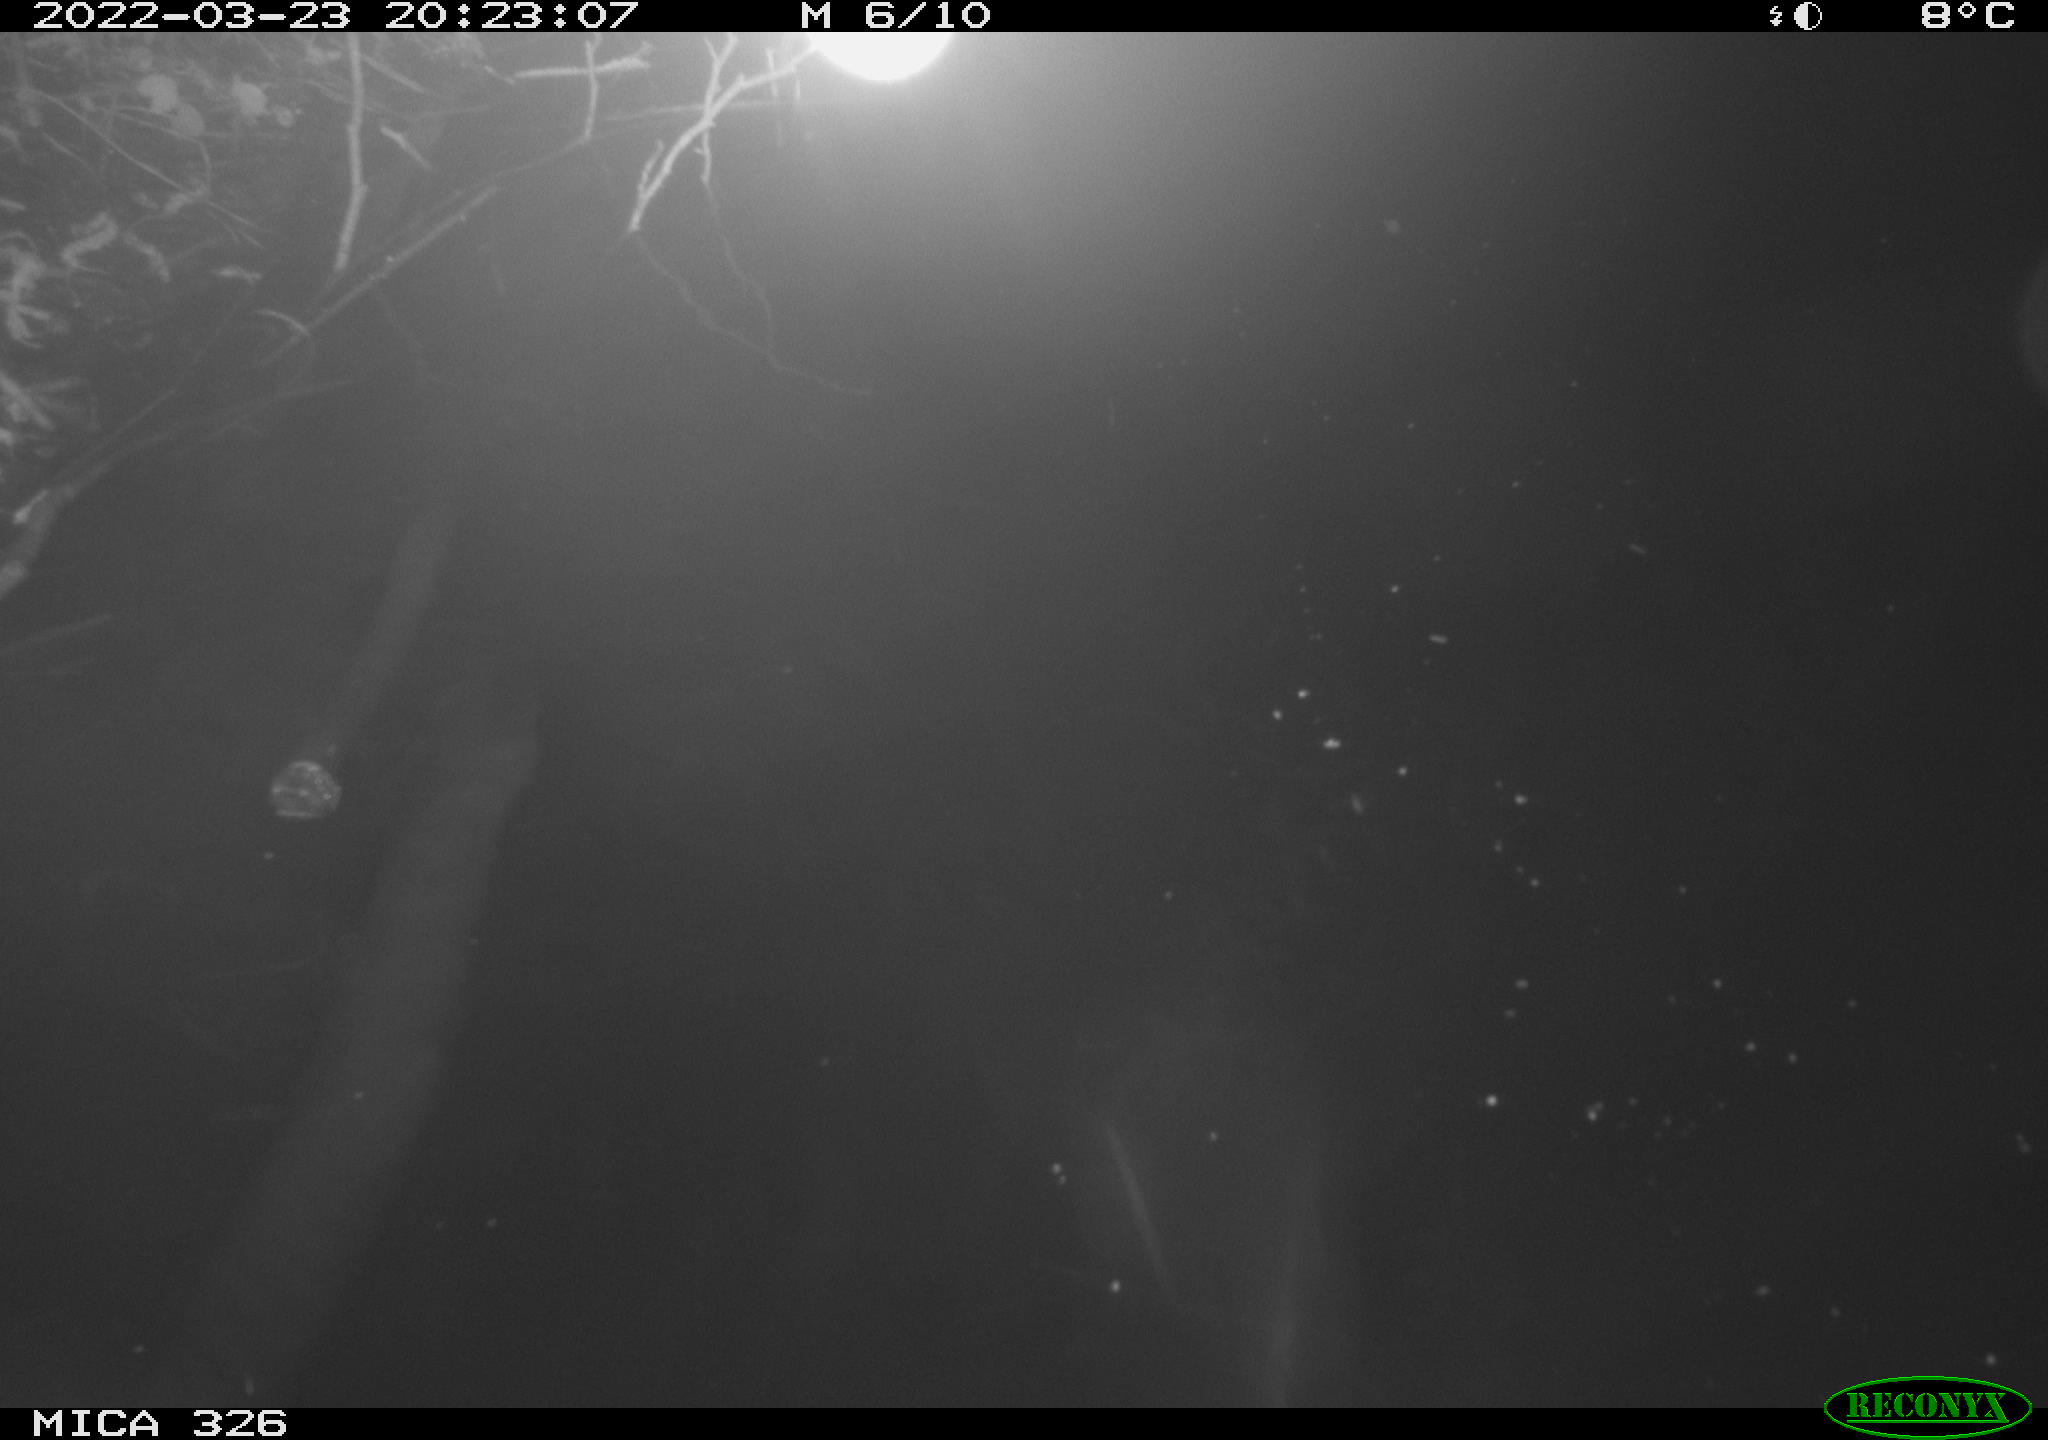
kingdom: Animalia
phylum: Chordata
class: Mammalia
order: Rodentia
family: Muridae
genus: Rattus
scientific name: Rattus norvegicus
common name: Brown rat
